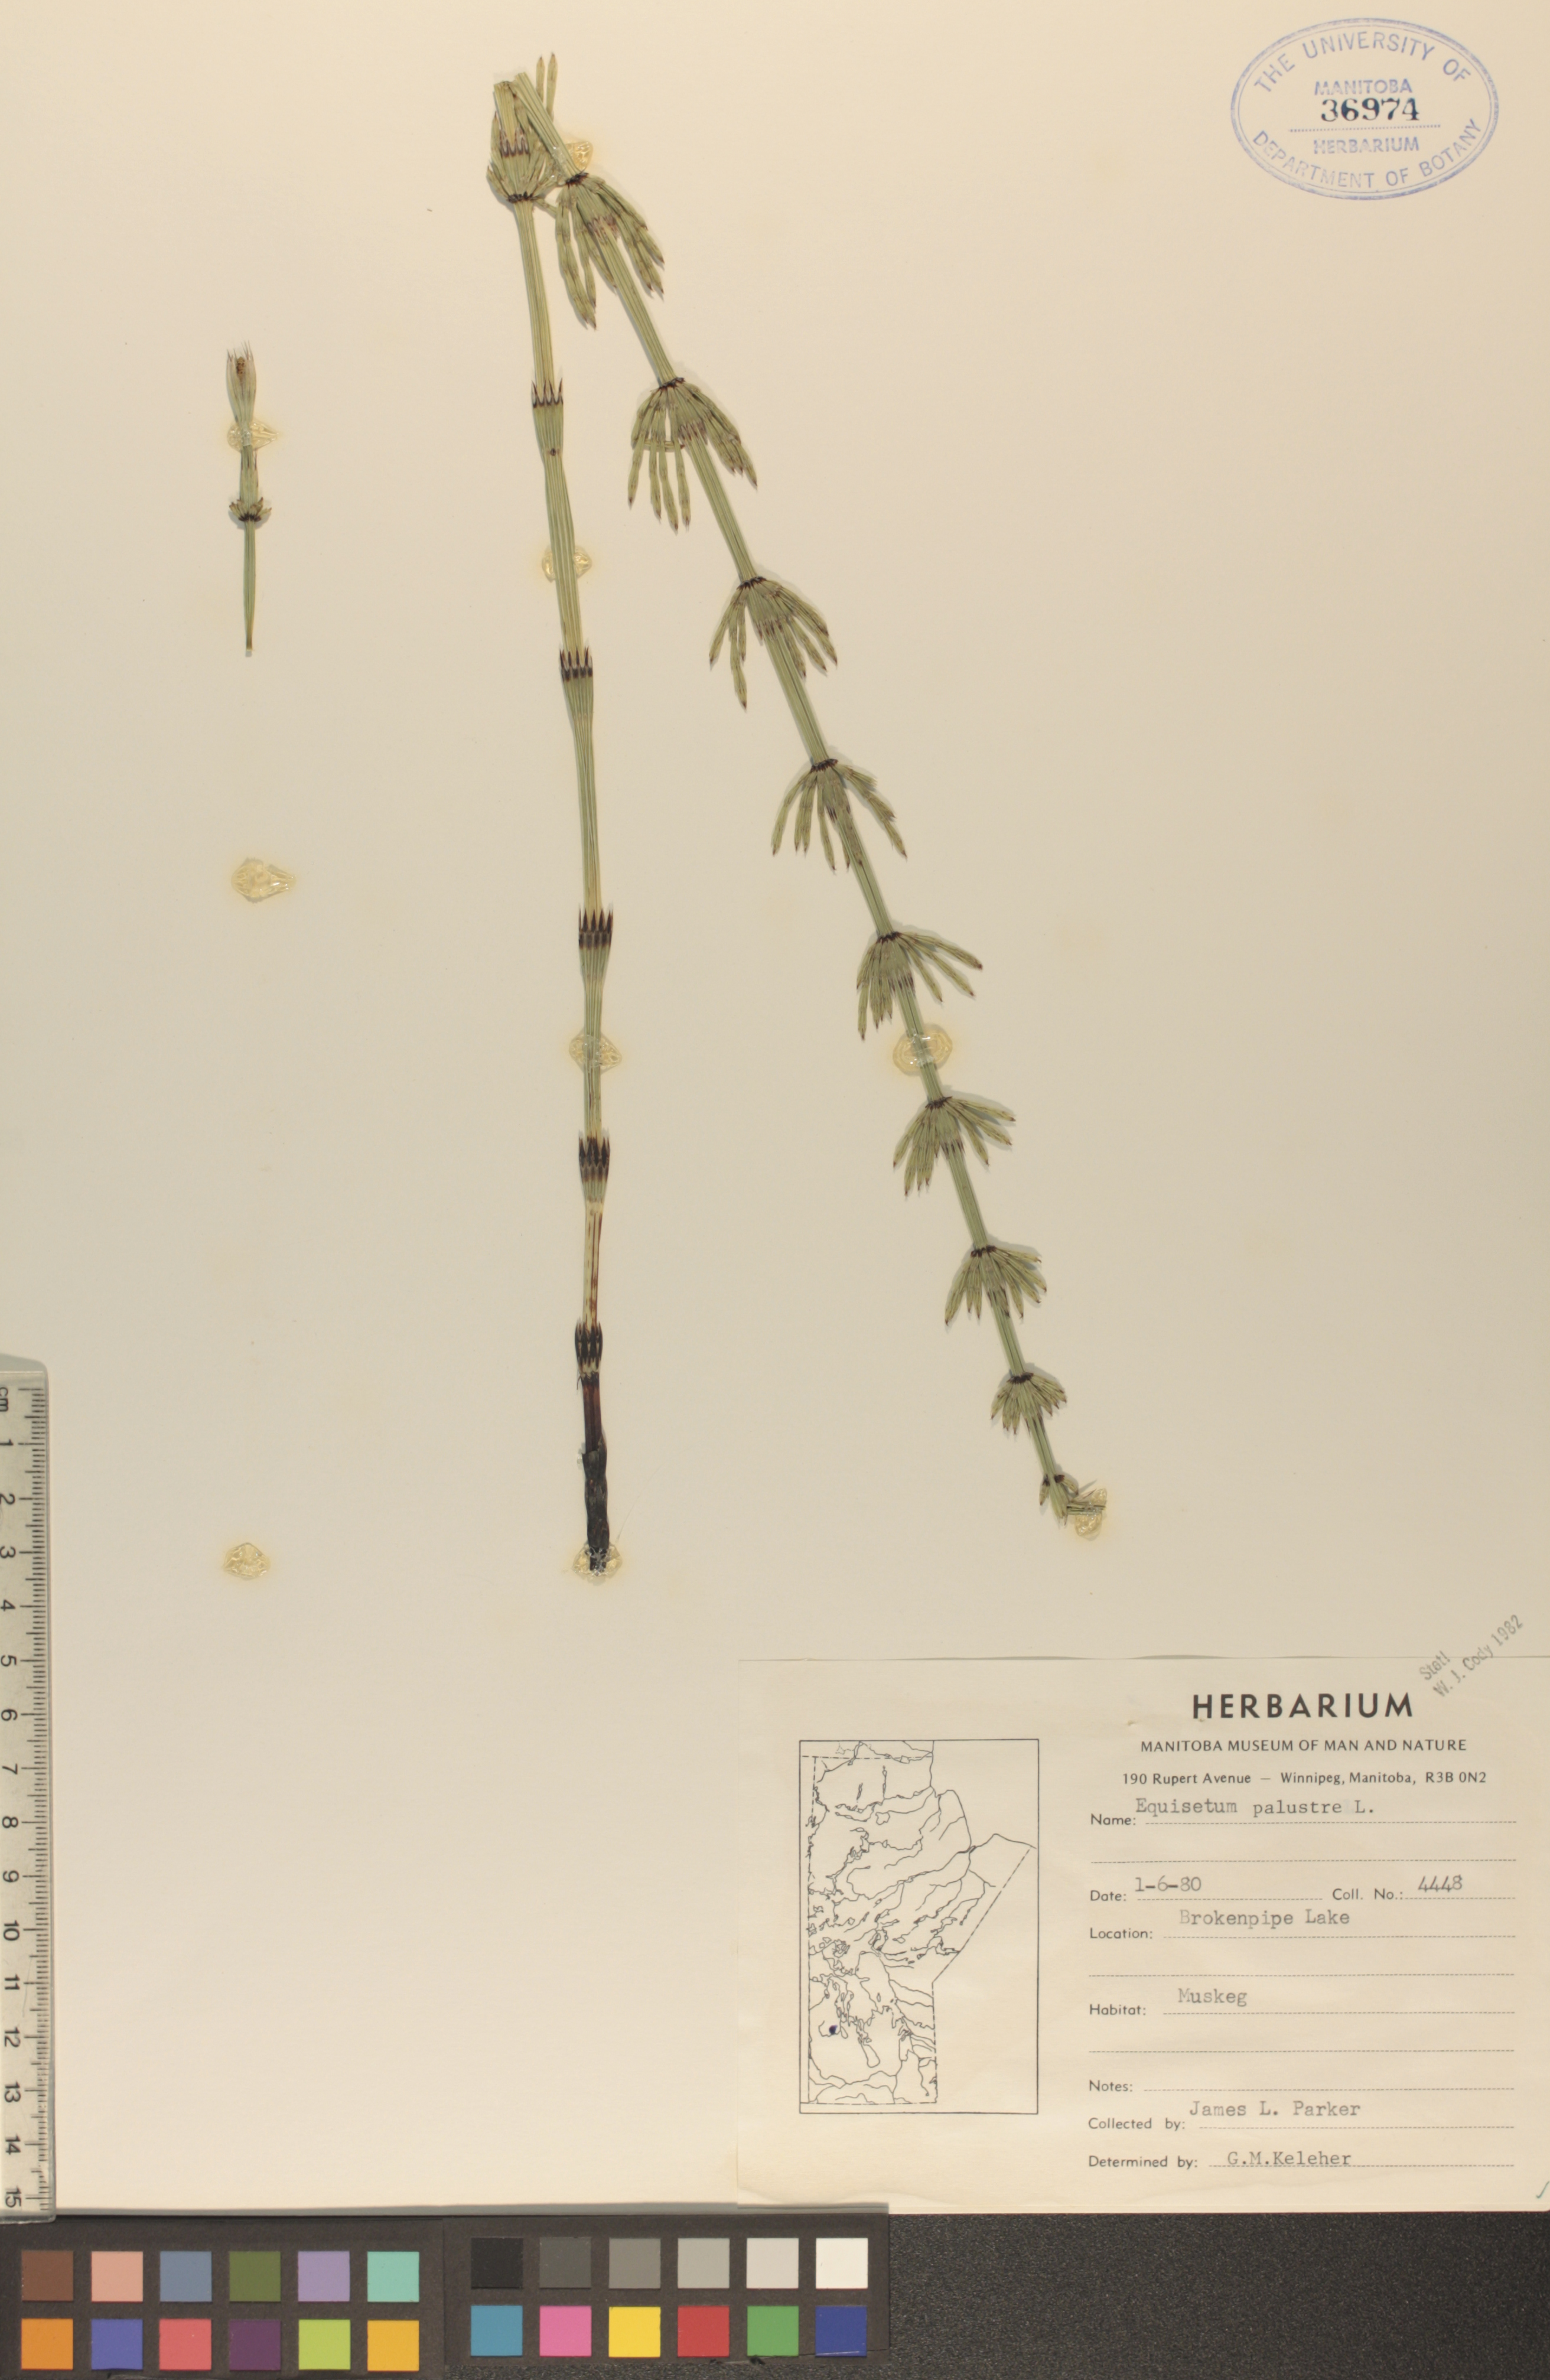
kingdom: Plantae
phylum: Tracheophyta
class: Polypodiopsida
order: Equisetales
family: Equisetaceae
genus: Equisetum
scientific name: Equisetum palustre
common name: Marsh horsetail
